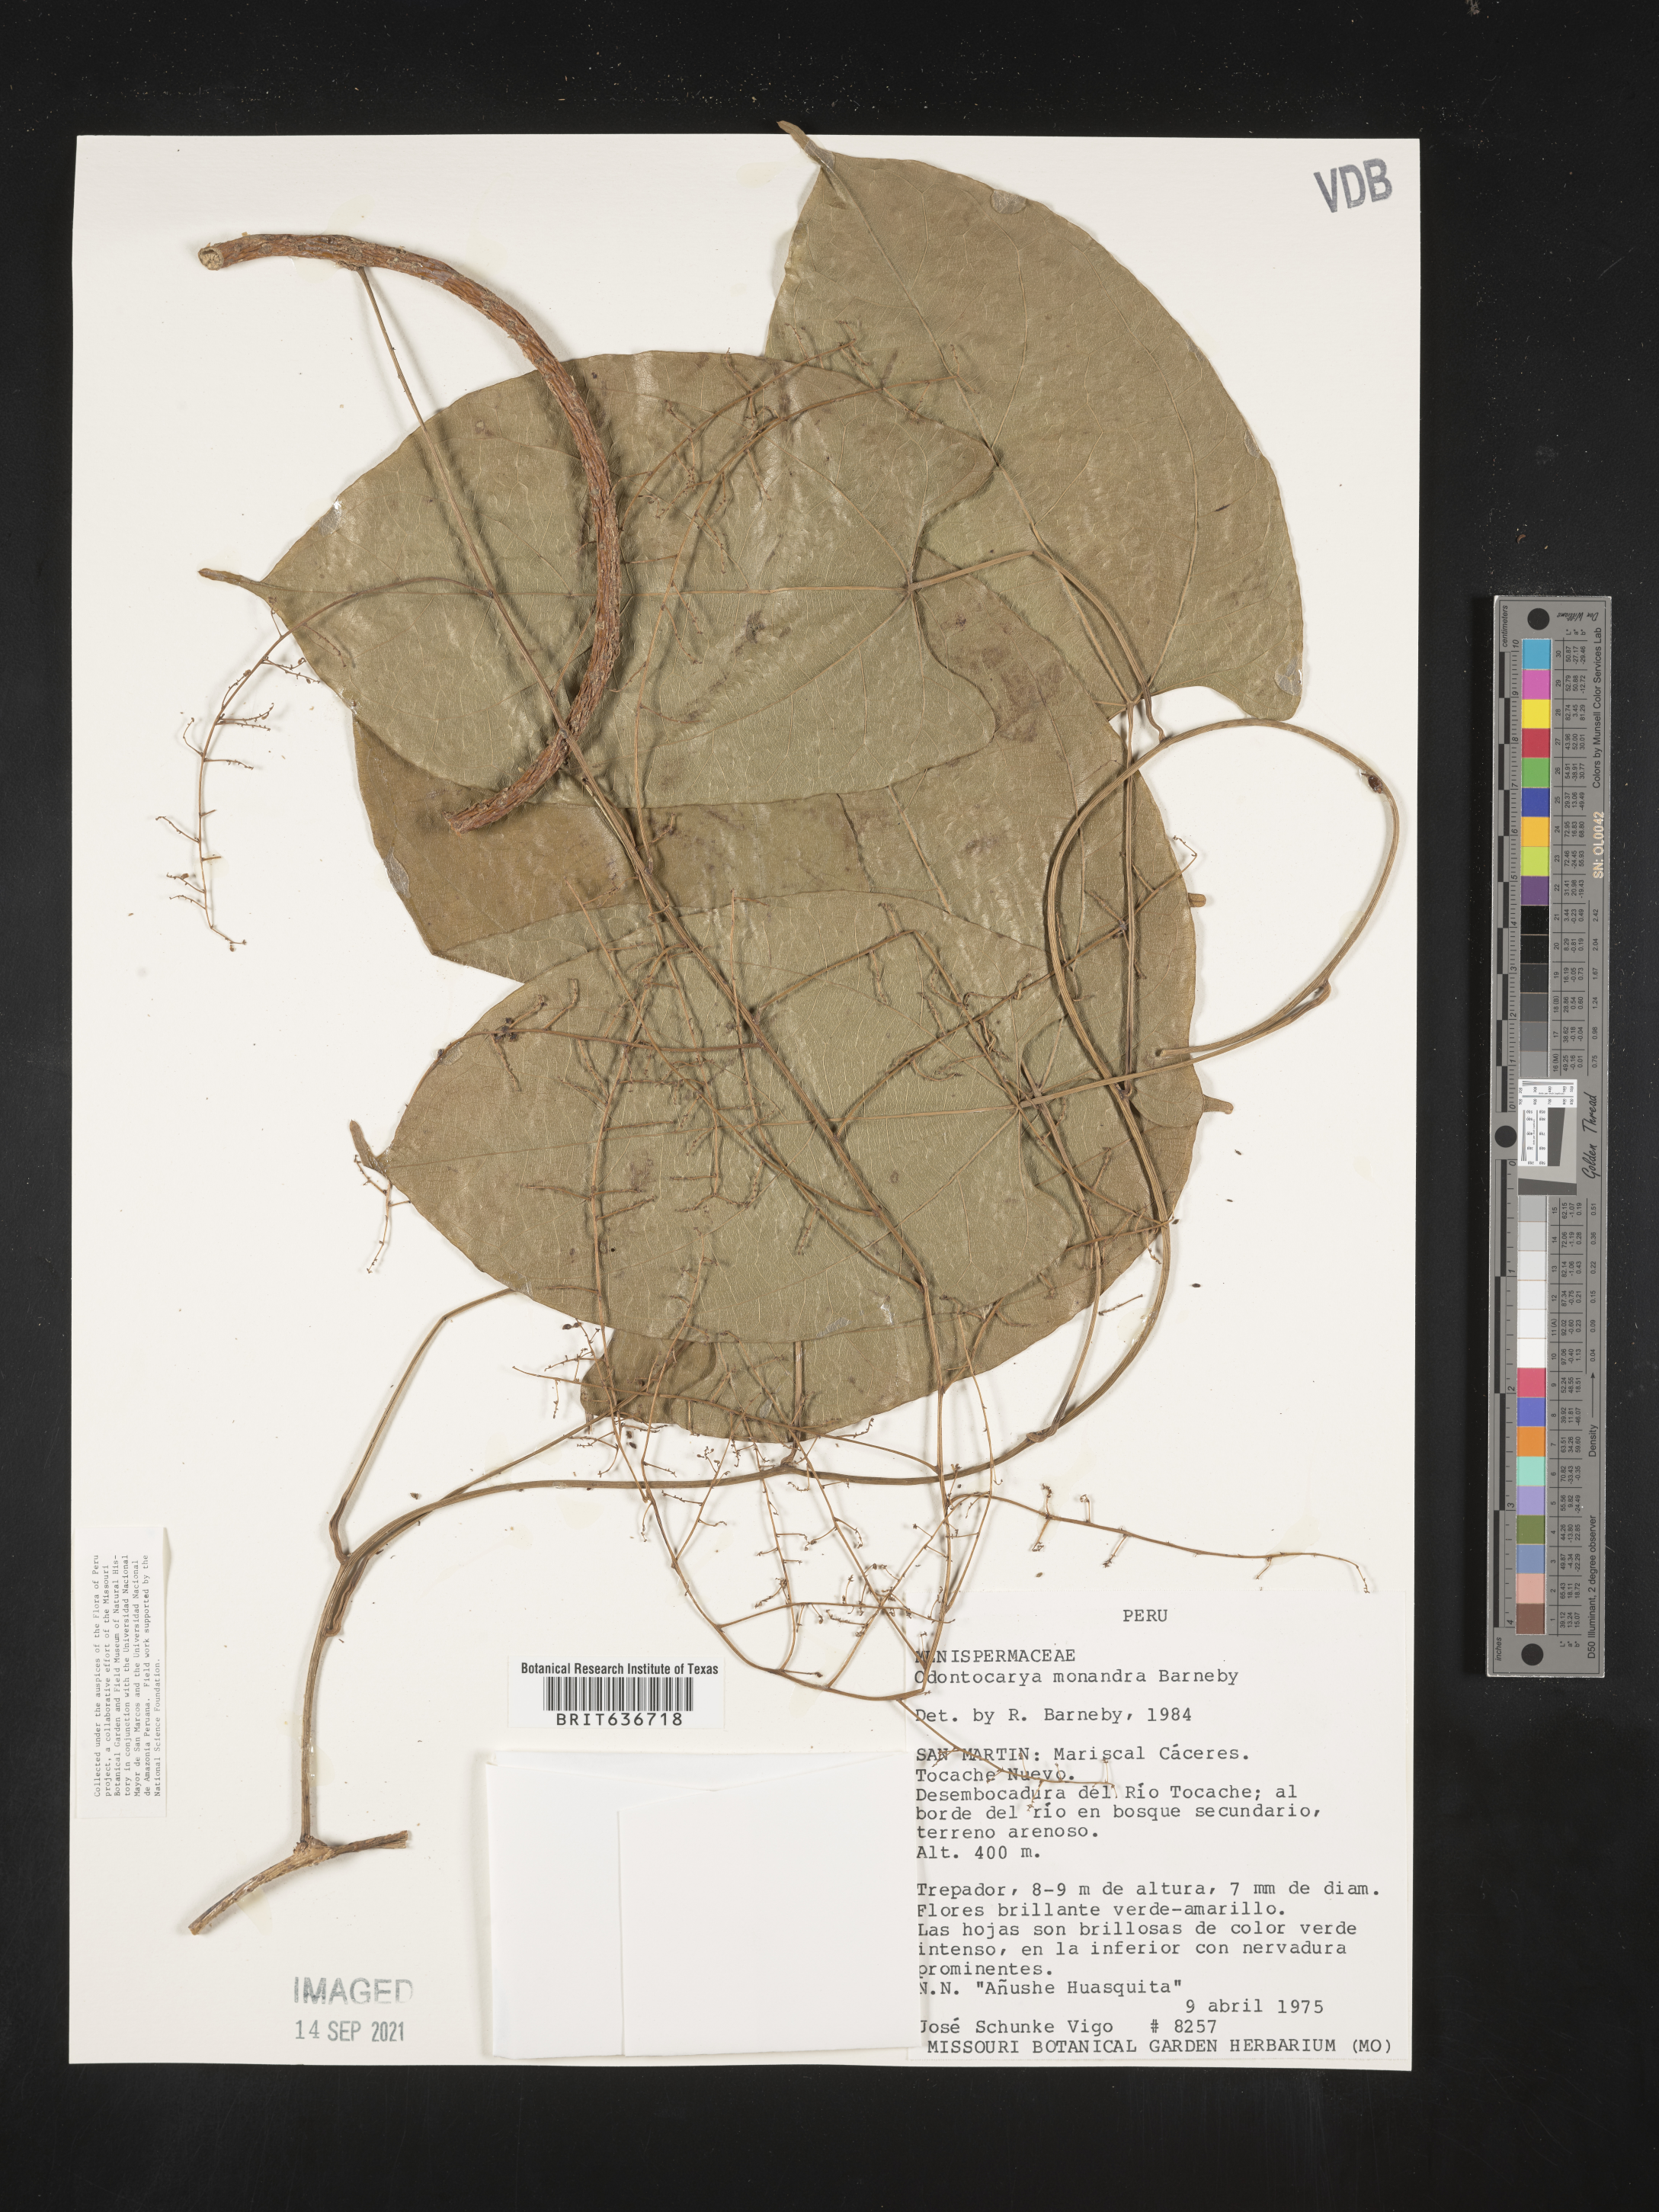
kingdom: Plantae
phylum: Tracheophyta
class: Magnoliopsida
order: Ranunculales
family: Menispermaceae
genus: Odontocarya
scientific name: Odontocarya monandra
